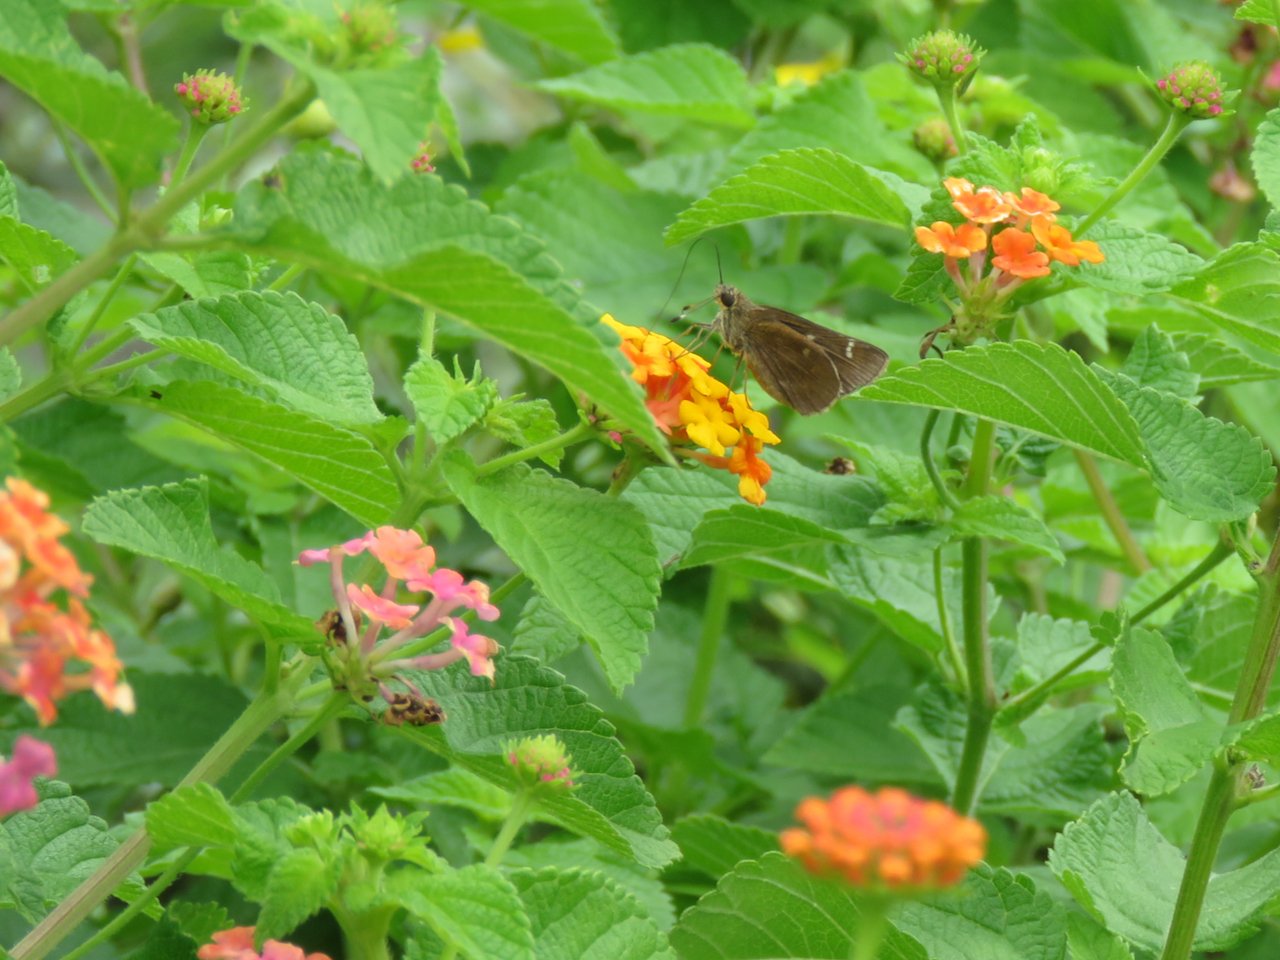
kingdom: Animalia
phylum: Arthropoda
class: Insecta
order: Lepidoptera
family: Hesperiidae
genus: Vernia
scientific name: Vernia verna
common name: Little Glassywing
